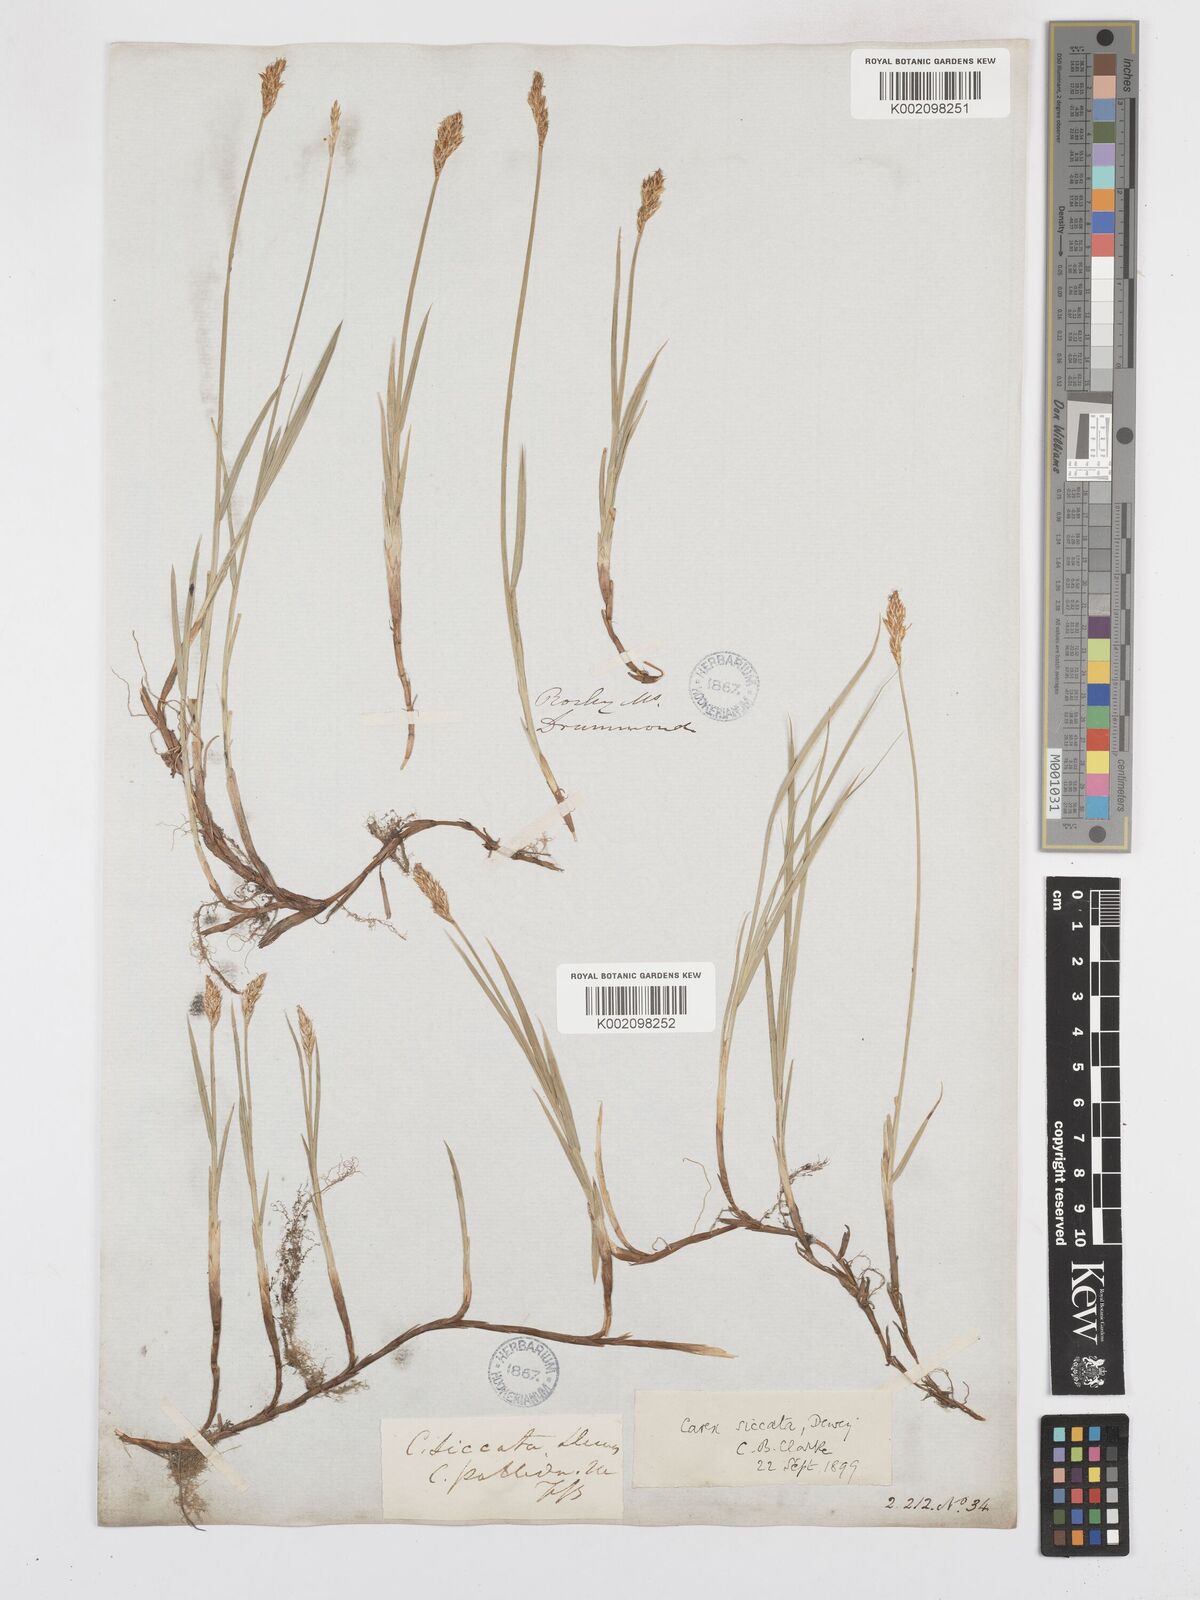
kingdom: Plantae
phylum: Tracheophyta
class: Liliopsida
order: Poales
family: Cyperaceae
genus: Carex
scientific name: Carex foenea
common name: Bronze sedge
